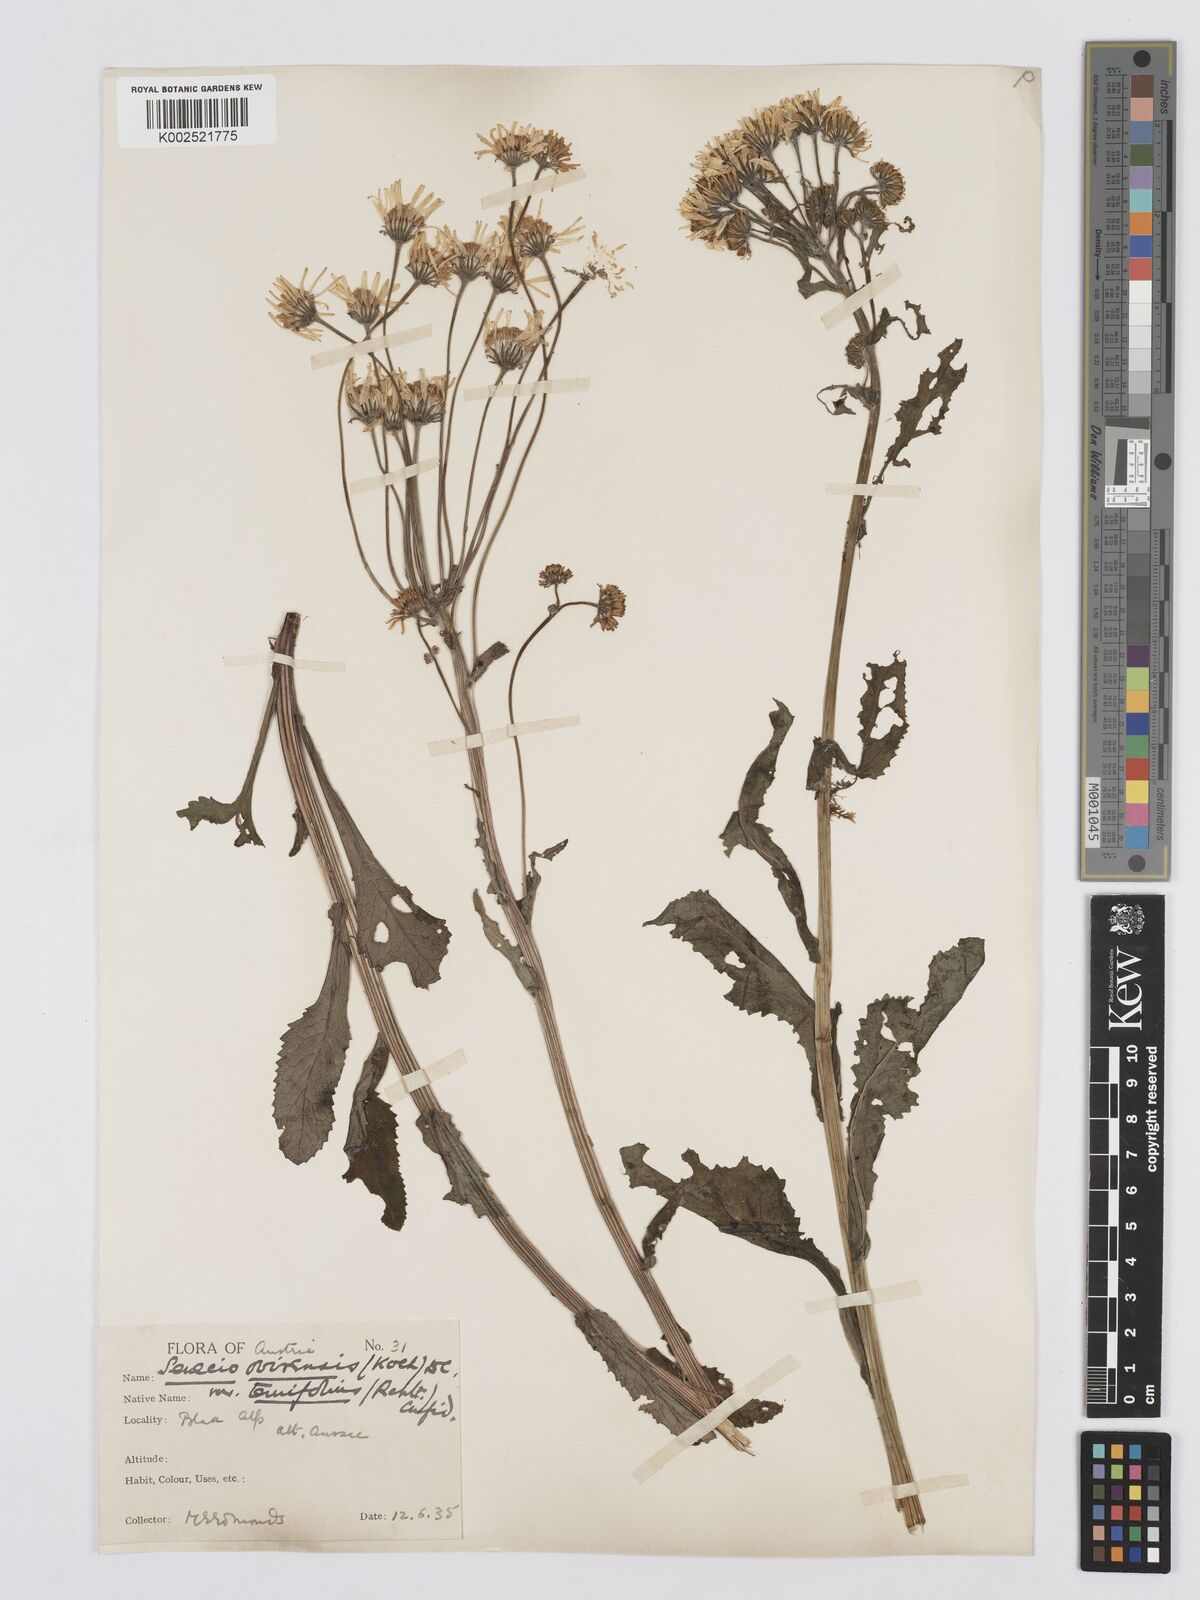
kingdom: Plantae
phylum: Tracheophyta
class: Magnoliopsida
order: Asterales
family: Asteraceae
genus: Tephroseris
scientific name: Tephroseris crispa
